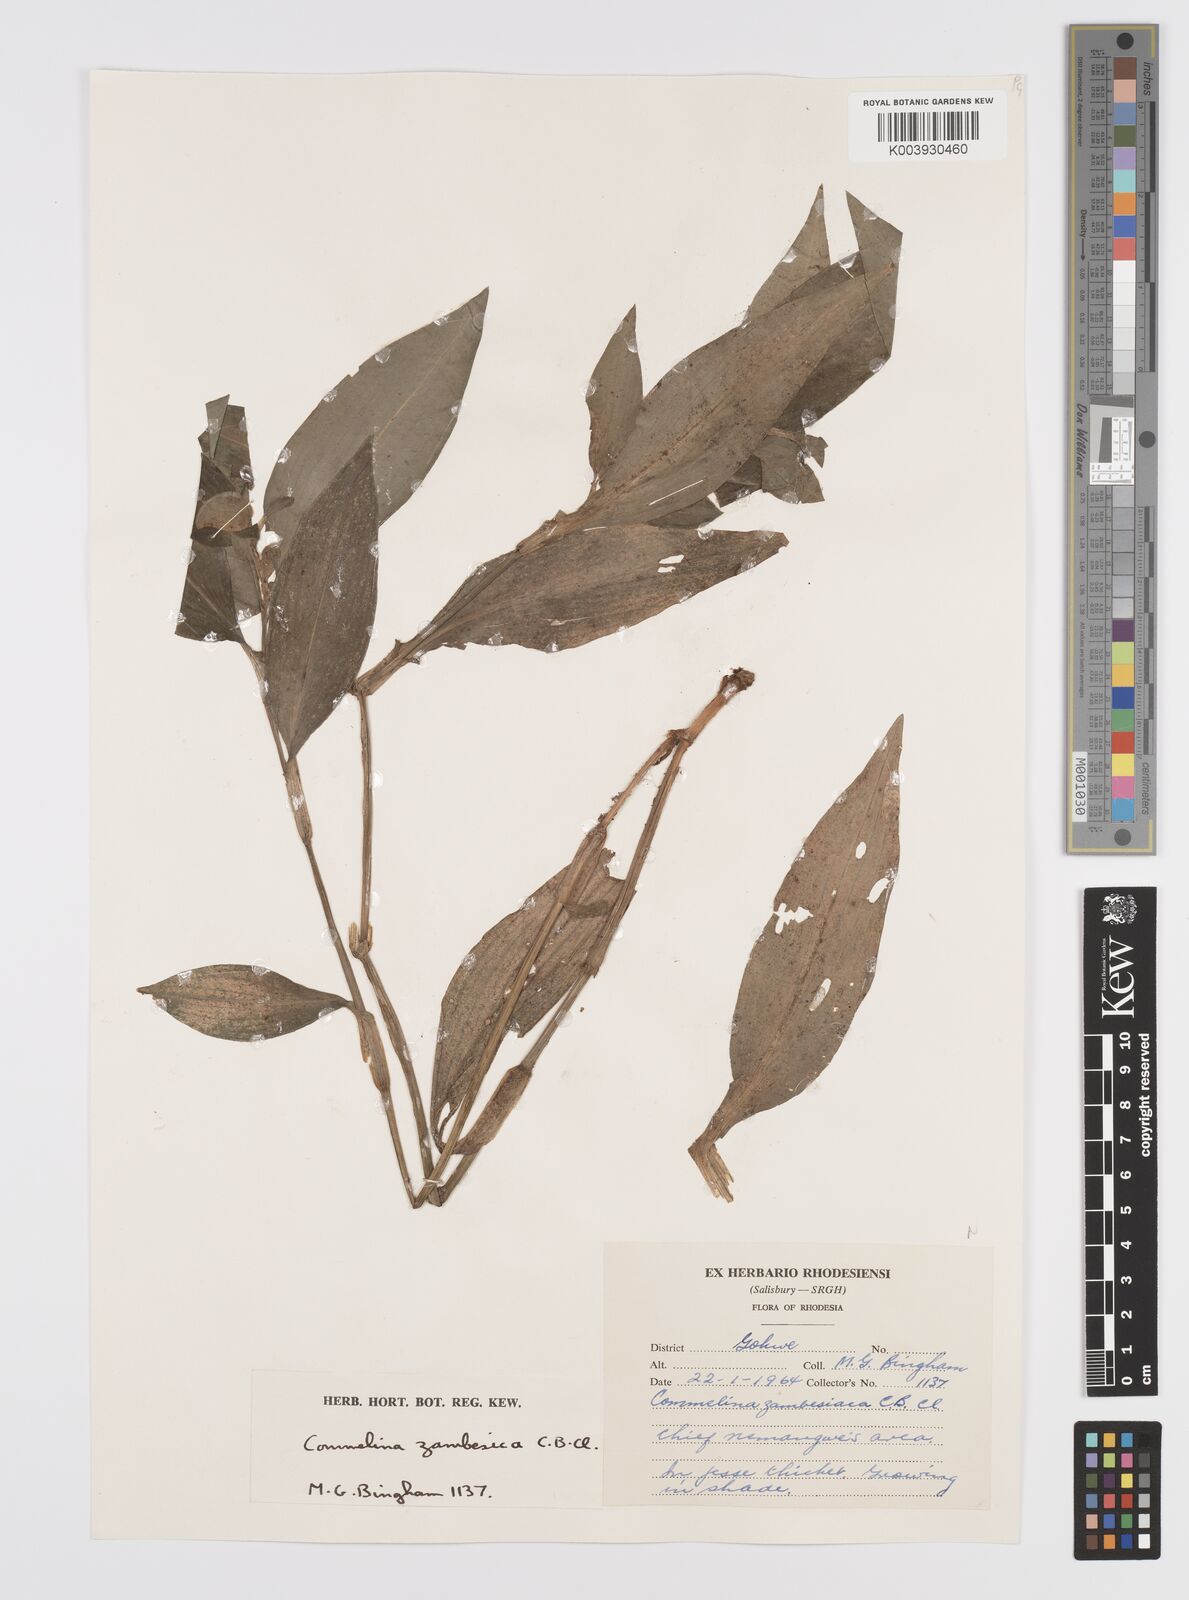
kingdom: Plantae
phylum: Tracheophyta
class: Liliopsida
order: Commelinales
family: Commelinaceae
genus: Commelina
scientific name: Commelina zambesica
